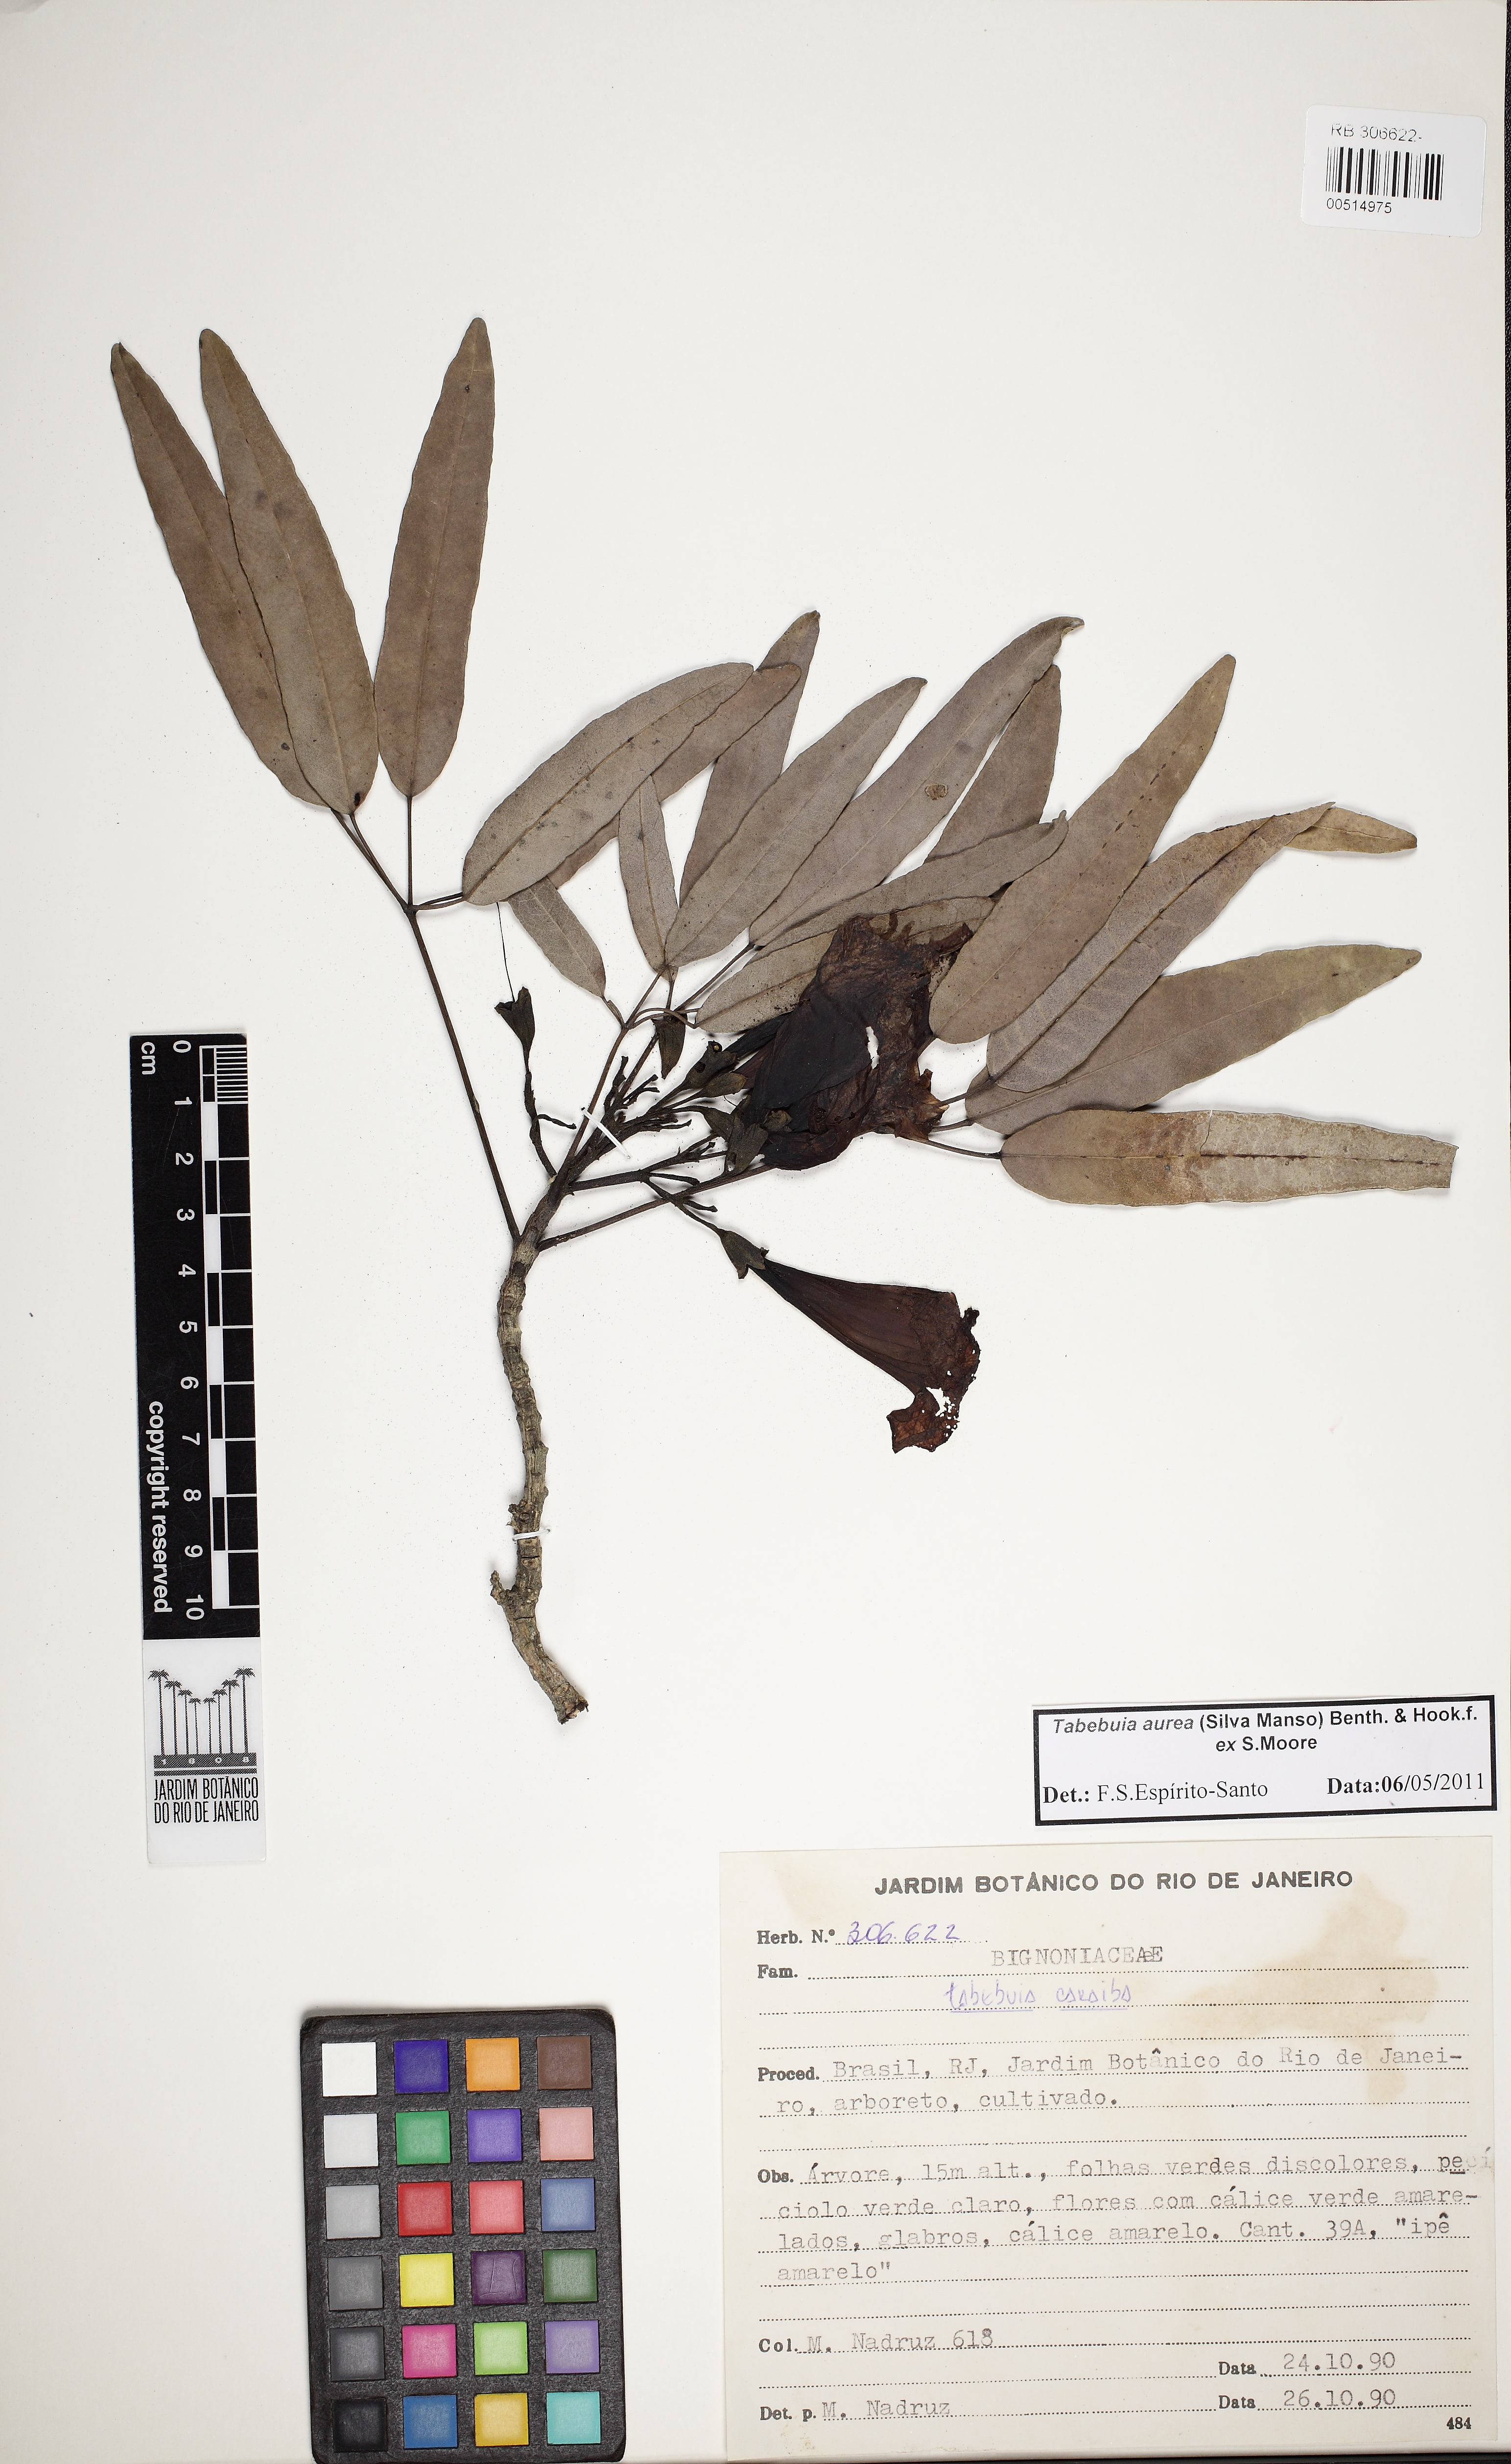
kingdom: Plantae
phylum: Tracheophyta
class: Magnoliopsida
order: Lamiales
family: Bignoniaceae
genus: Tabebuia
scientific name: Tabebuia aurea
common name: Caribbean trumpet-tree
